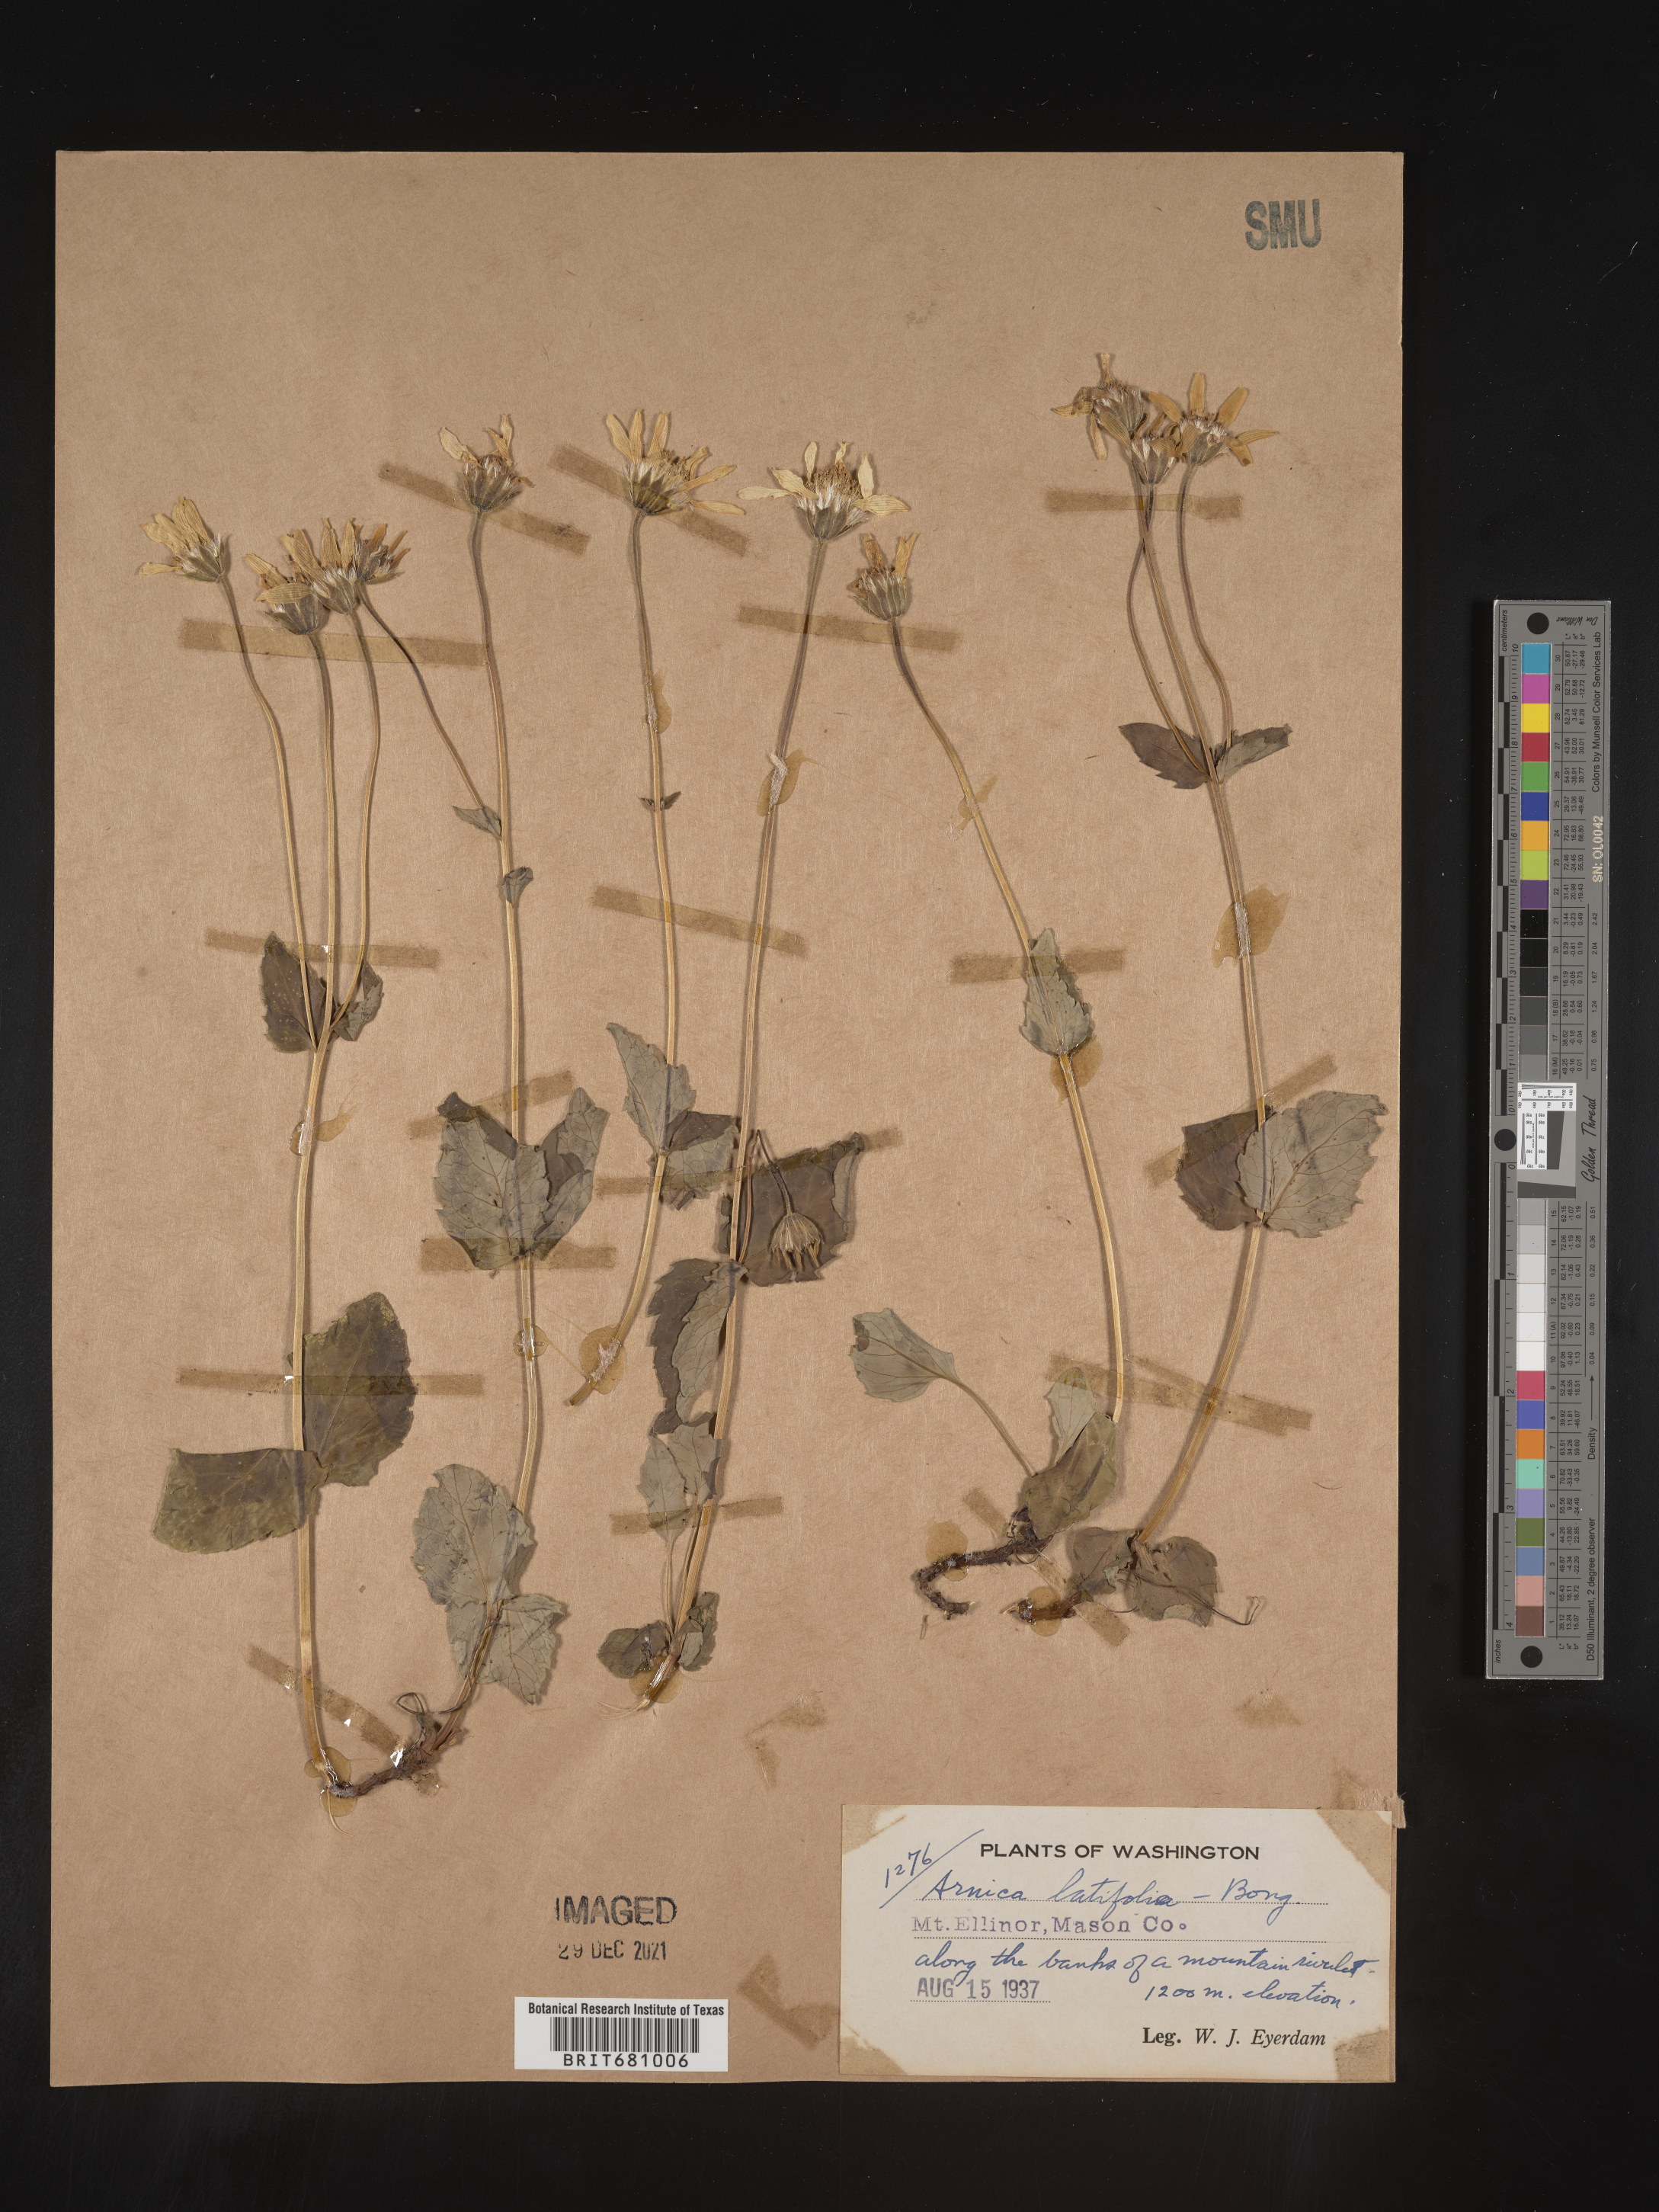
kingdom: Plantae
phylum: Tracheophyta
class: Magnoliopsida
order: Asterales
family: Asteraceae
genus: Arnica
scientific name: Arnica latifolia
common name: Arnica
